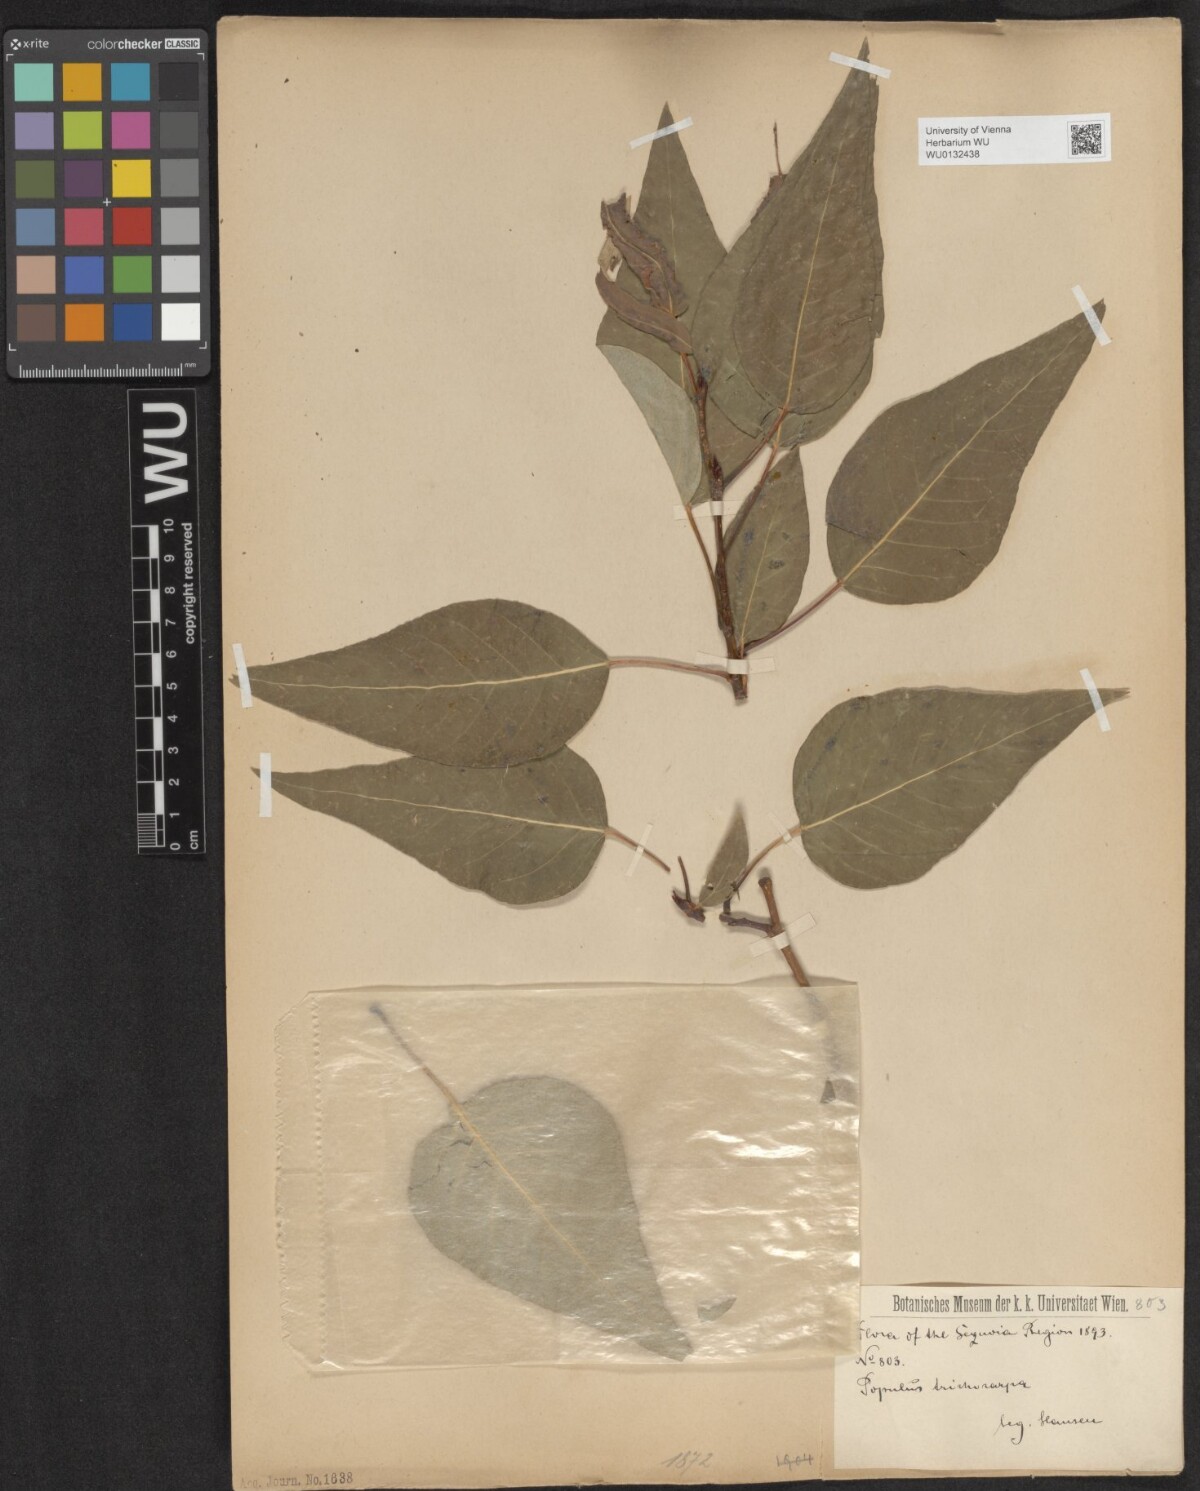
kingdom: Plantae
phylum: Tracheophyta
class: Magnoliopsida
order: Malpighiales
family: Salicaceae
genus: Populus
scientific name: Populus trichocarpa
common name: Black cottonwood
